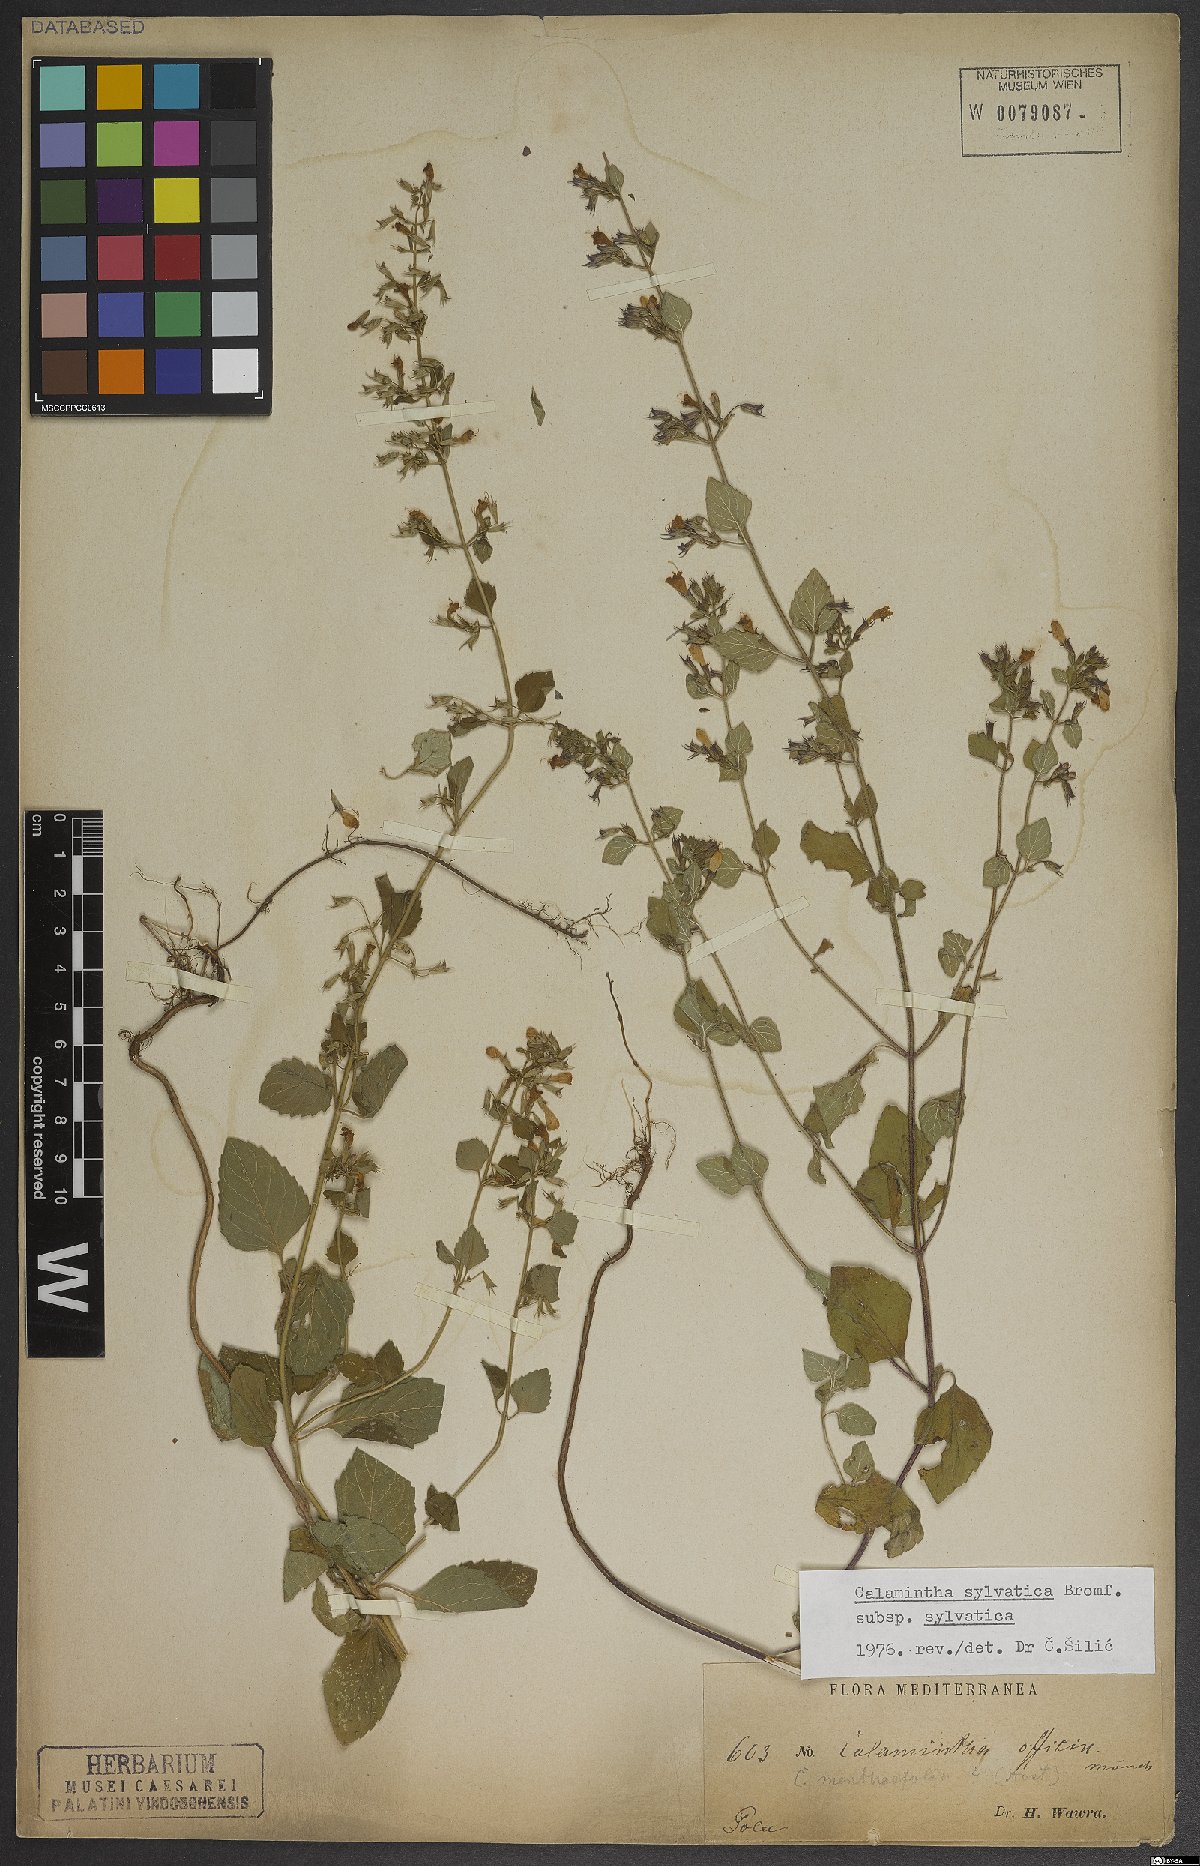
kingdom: Plantae
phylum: Tracheophyta
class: Magnoliopsida
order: Lamiales
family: Lamiaceae
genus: Clinopodium
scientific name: Clinopodium menthifolium
